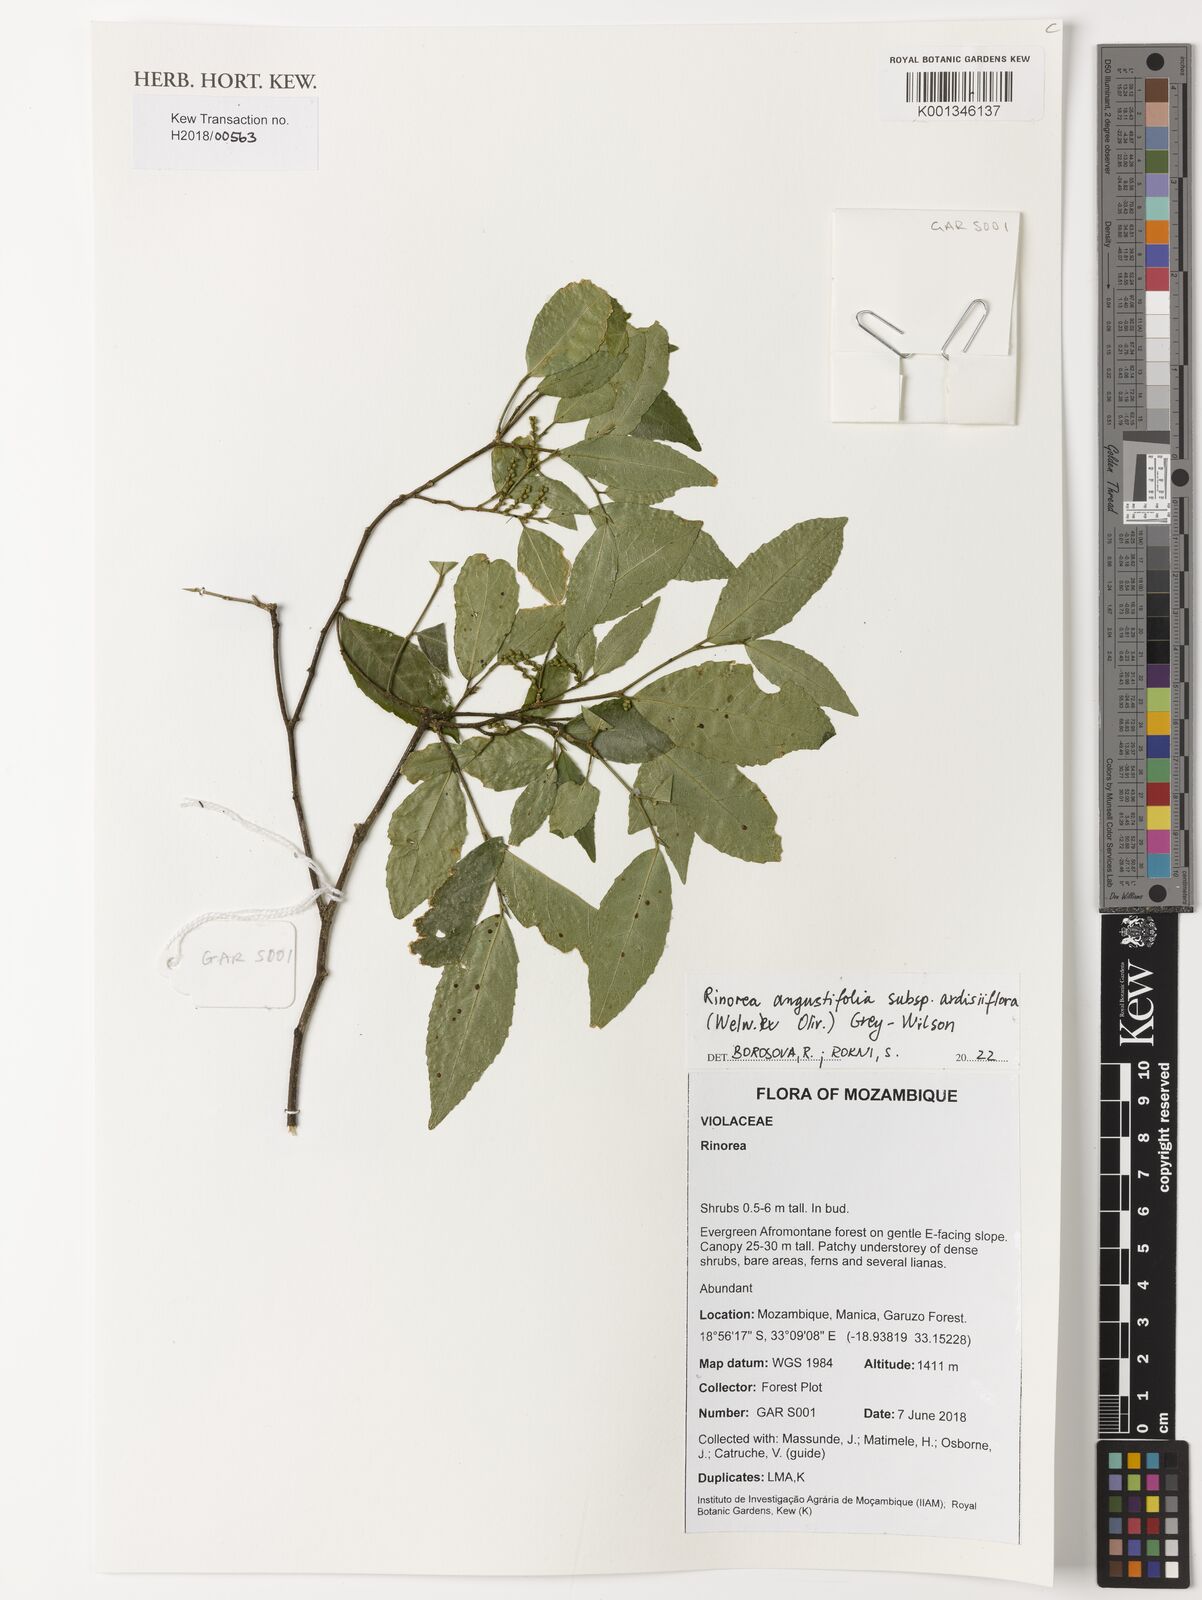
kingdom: Plantae
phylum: Tracheophyta
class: Magnoliopsida
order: Malpighiales
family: Violaceae
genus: Rinorea
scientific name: Rinorea angustifolia
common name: White violet-bush
